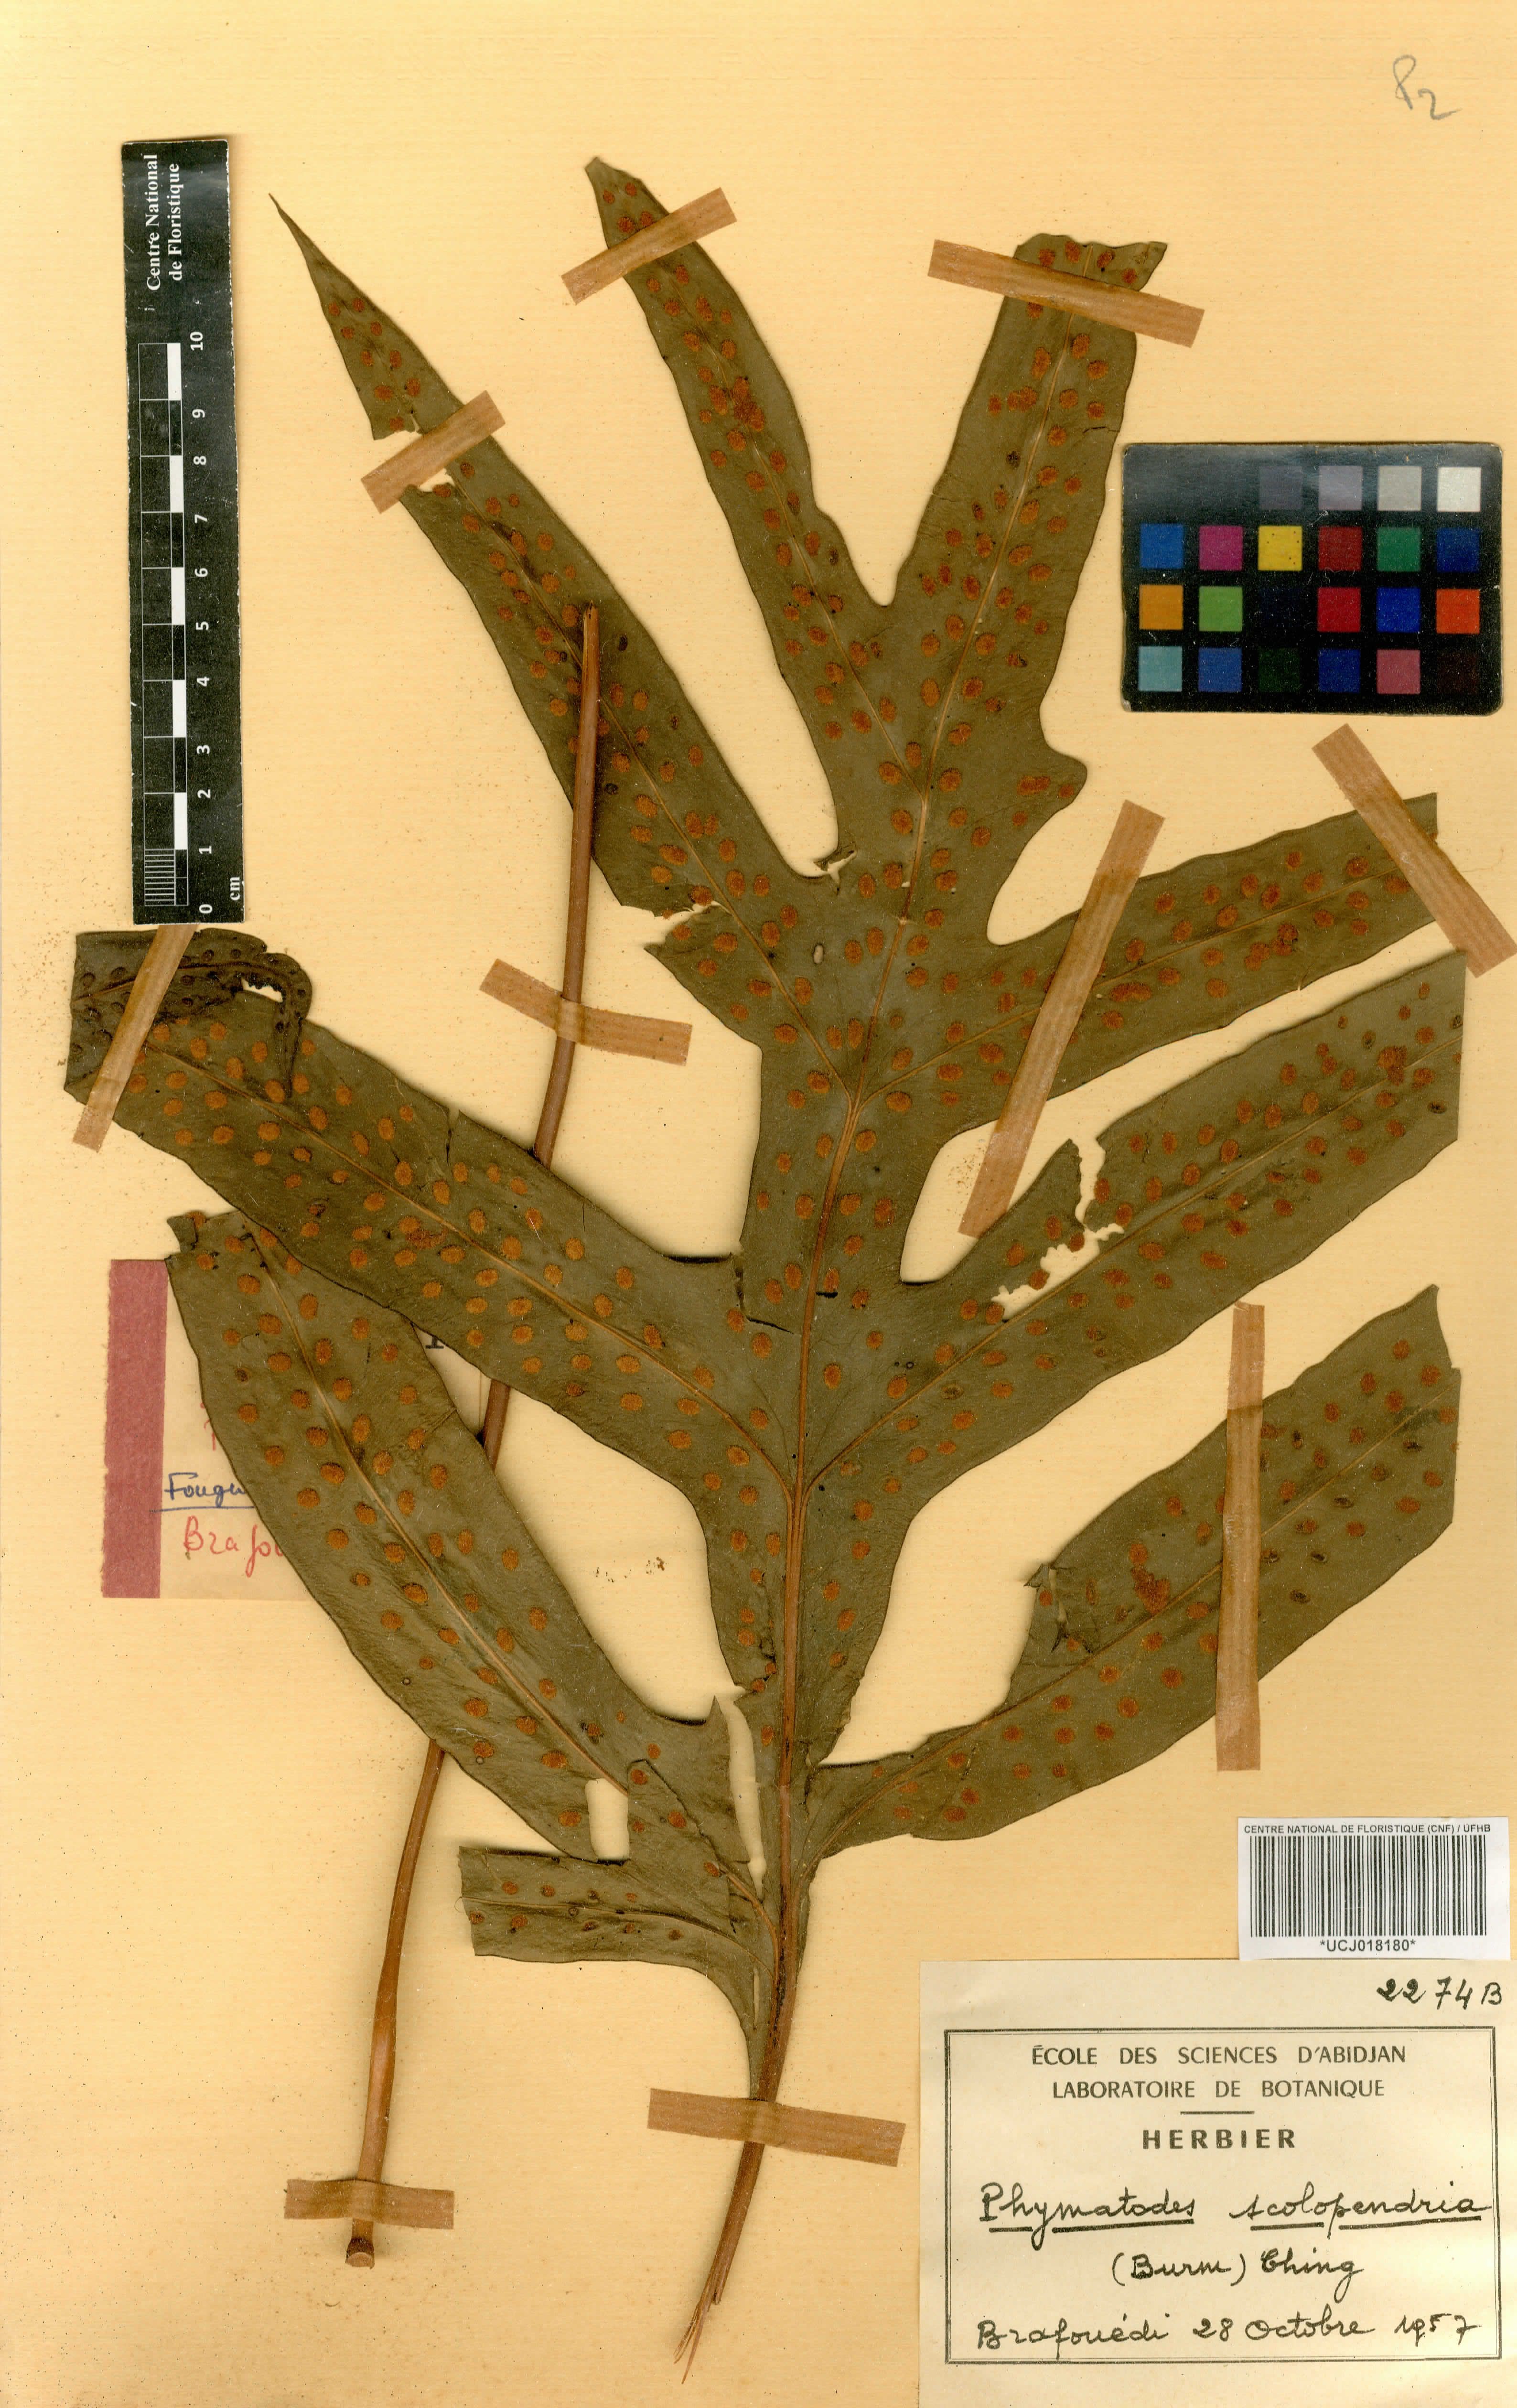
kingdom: Plantae
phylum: Tracheophyta
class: Polypodiopsida
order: Polypodiales
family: Polypodiaceae
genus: Microsorum
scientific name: Microsorum scolopendria
